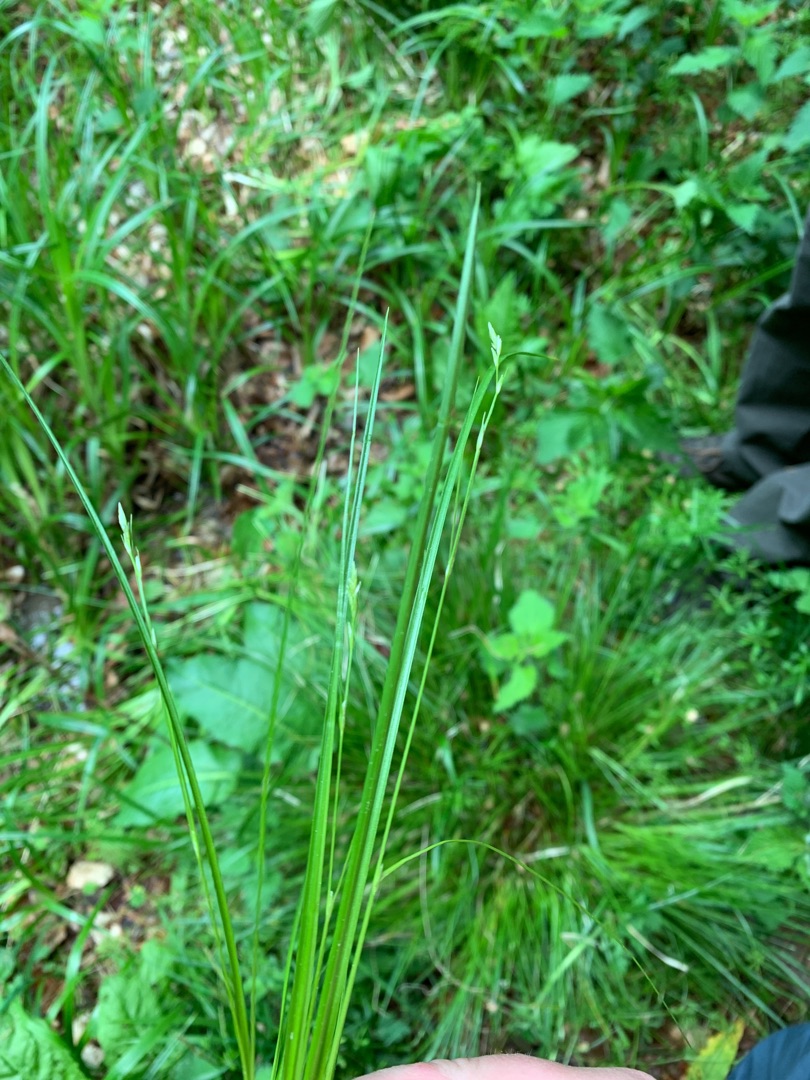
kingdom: Plantae
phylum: Tracheophyta
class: Liliopsida
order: Poales
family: Cyperaceae
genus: Carex
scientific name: Carex remota
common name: Akselblomstret star
